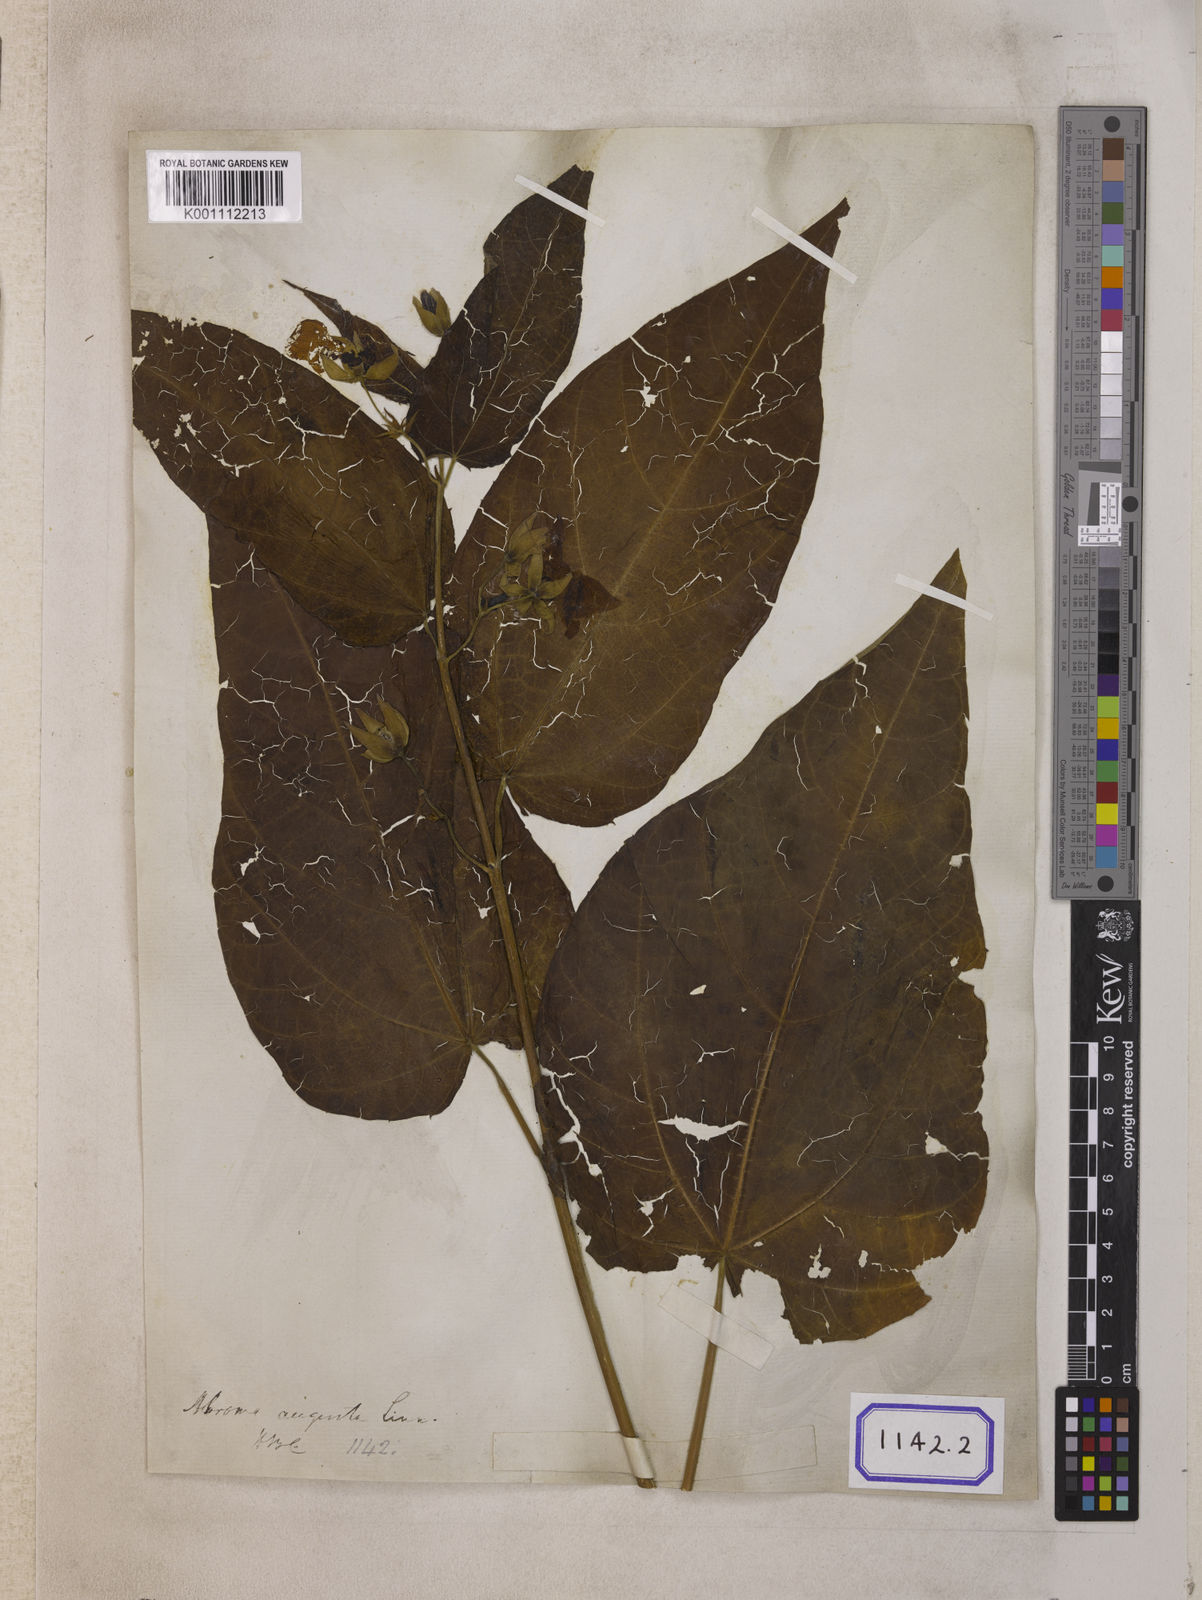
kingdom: Plantae
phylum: Tracheophyta
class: Magnoliopsida
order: Malvales
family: Malvaceae
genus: Abroma
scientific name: Abroma augustum
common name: Devil's-cotton
